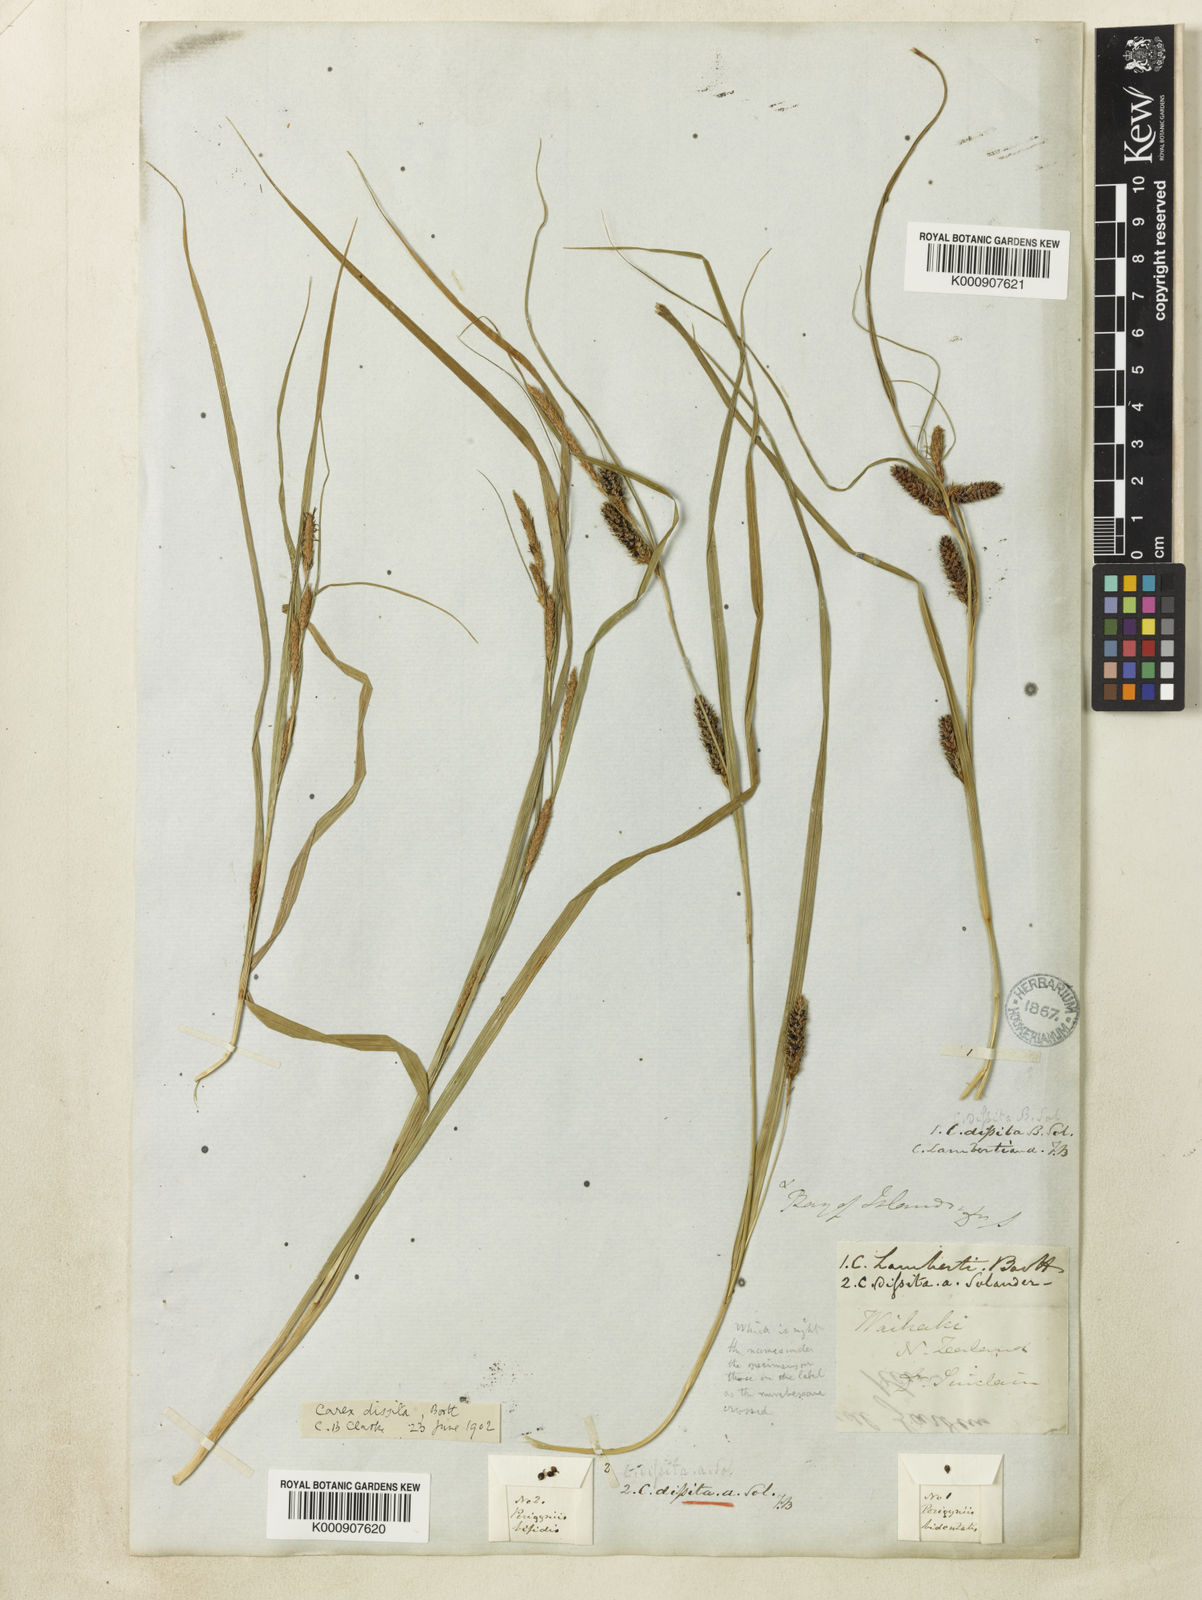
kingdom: Plantae
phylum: Tracheophyta
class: Liliopsida
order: Poales
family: Cyperaceae
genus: Carex
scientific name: Carex
